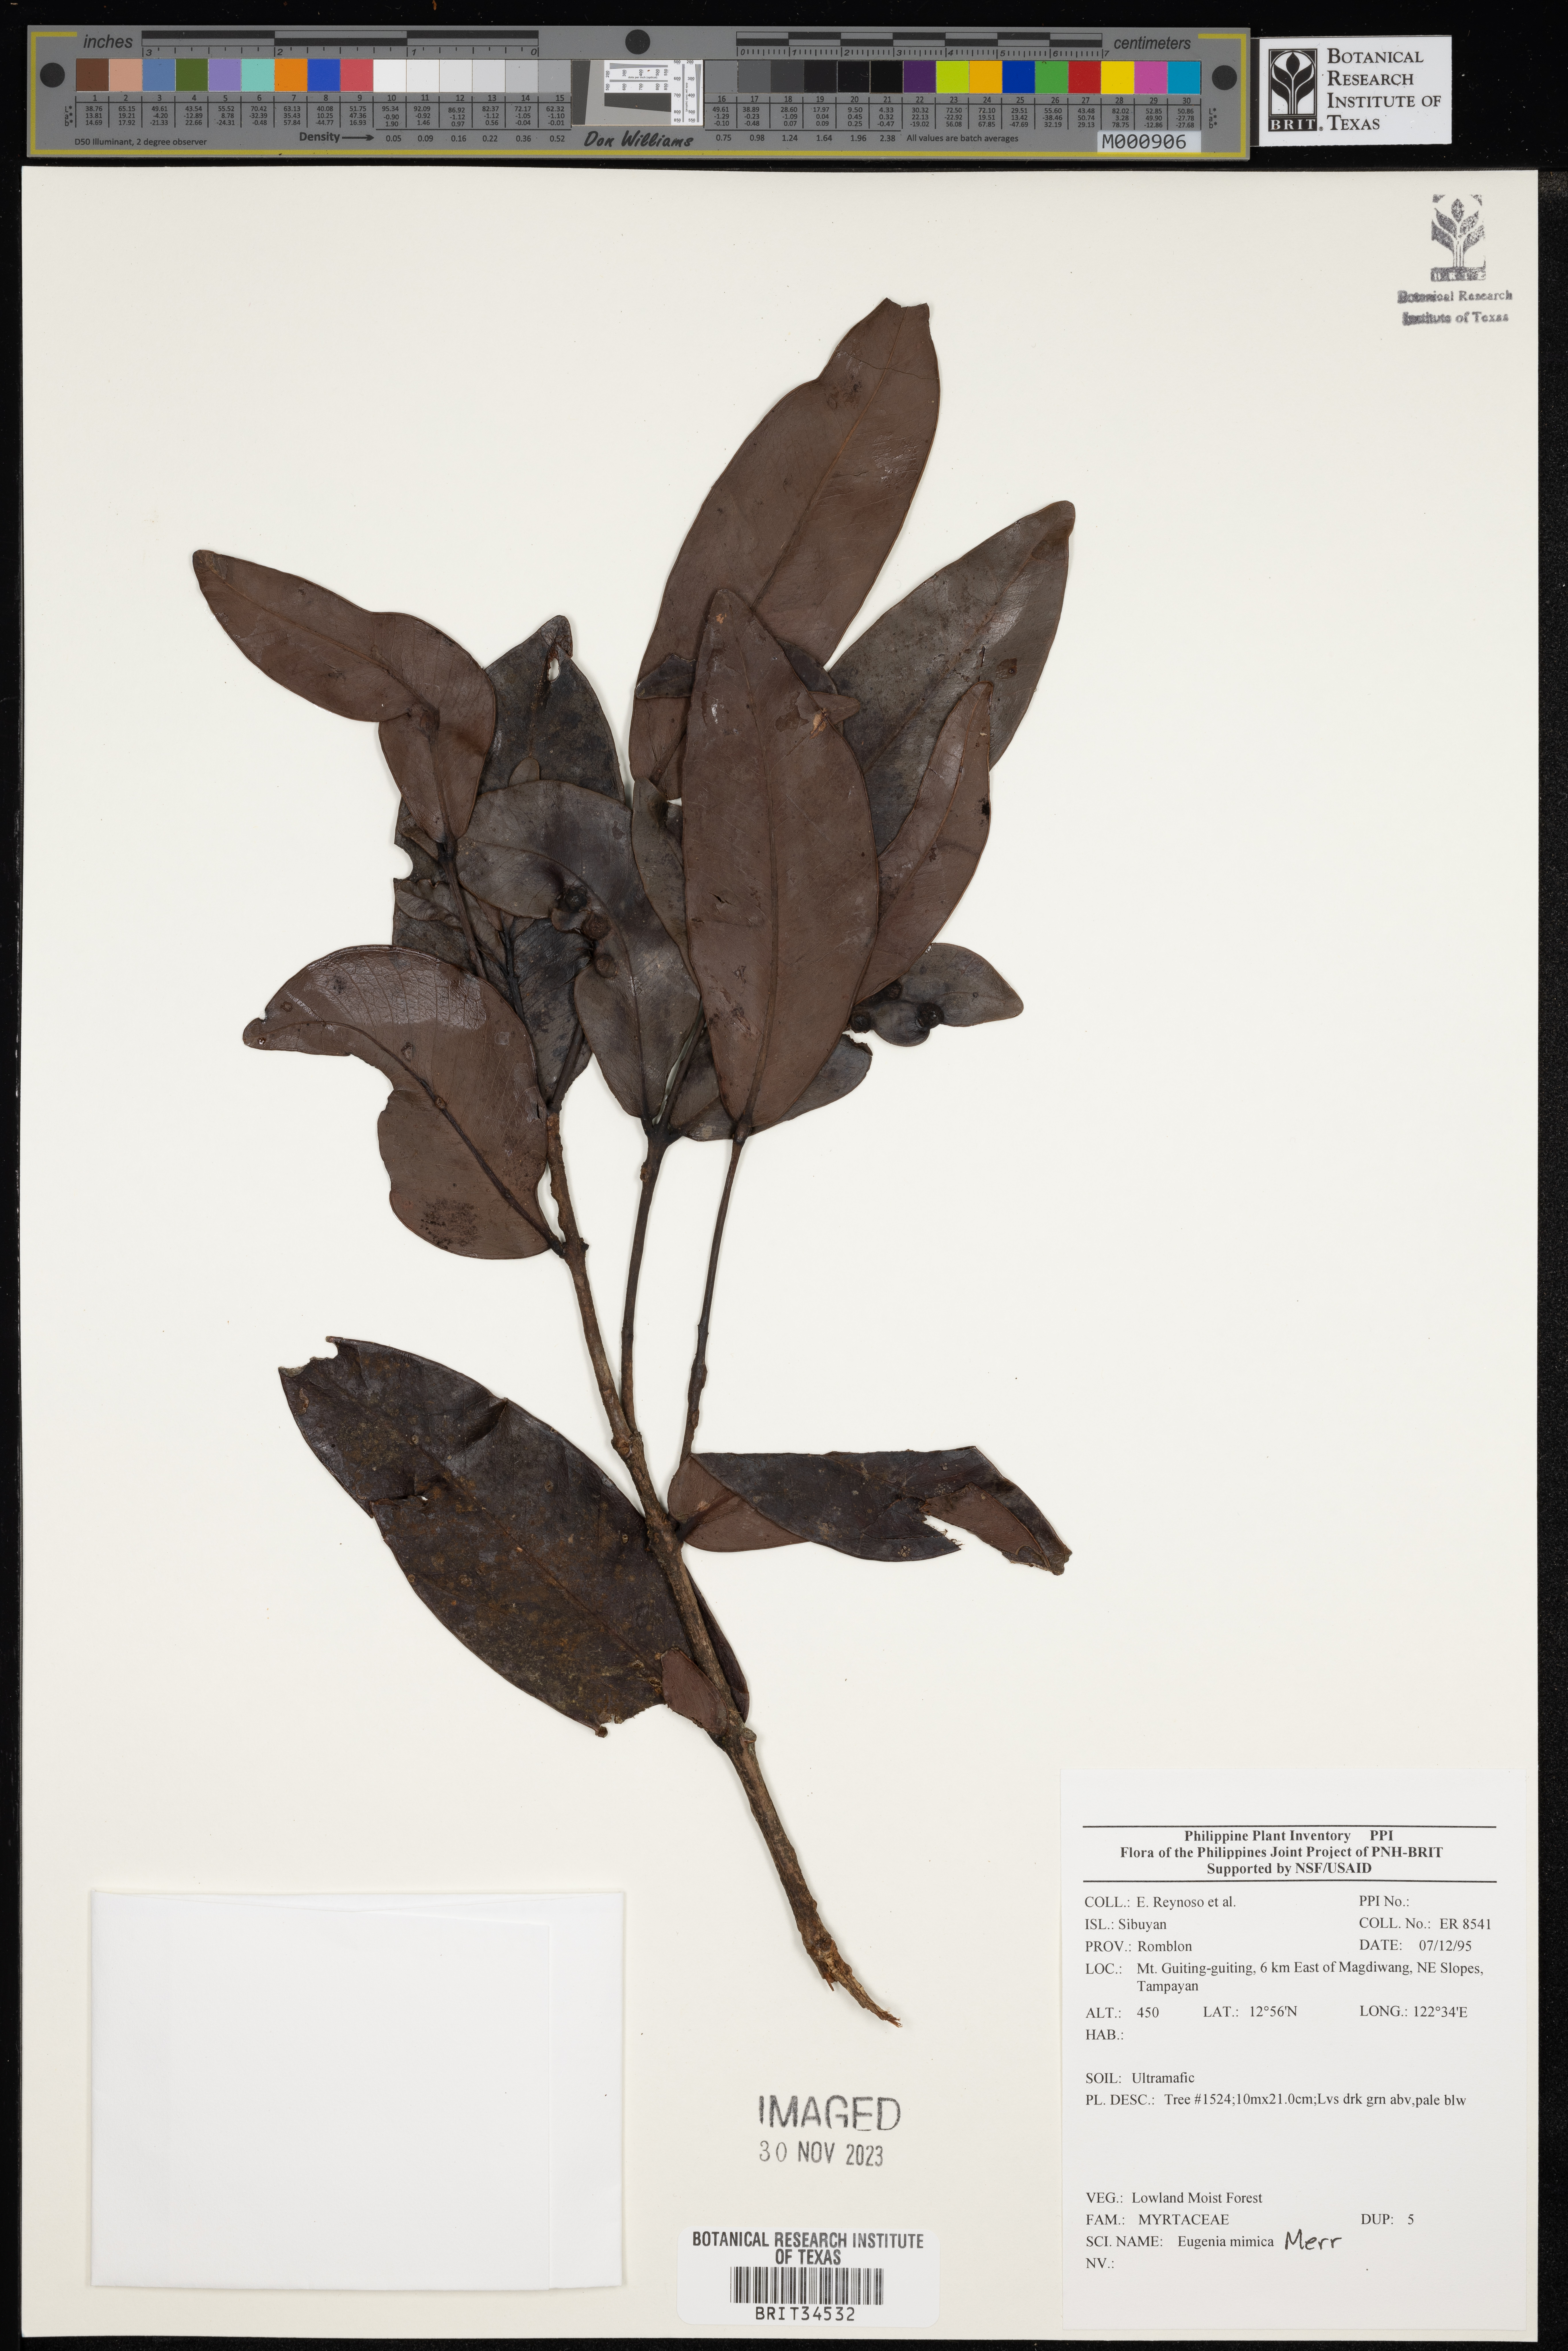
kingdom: Plantae
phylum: Tracheophyta
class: Magnoliopsida
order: Myrtales
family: Myrtaceae
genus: Eugenia
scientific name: Eugenia
